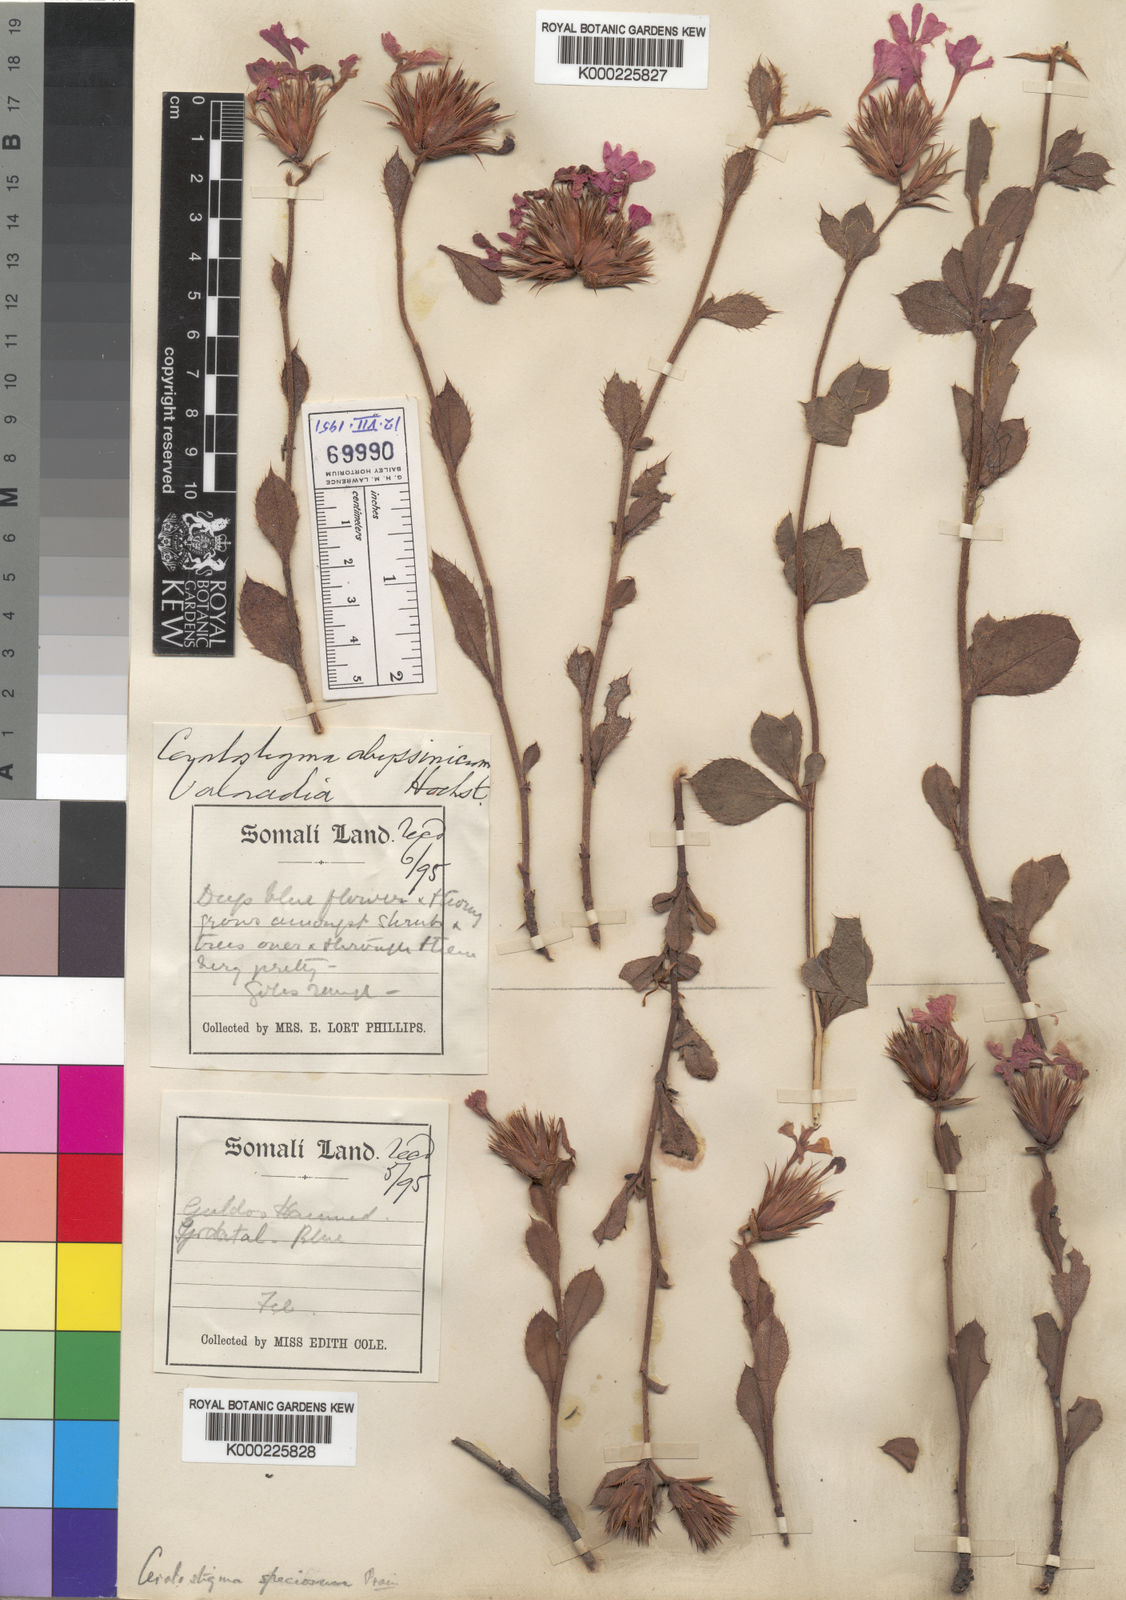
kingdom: Plantae
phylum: Tracheophyta
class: Magnoliopsida
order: Caryophyllales
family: Plumbaginaceae
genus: Ceratostigma
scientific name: Ceratostigma abyssinicum
